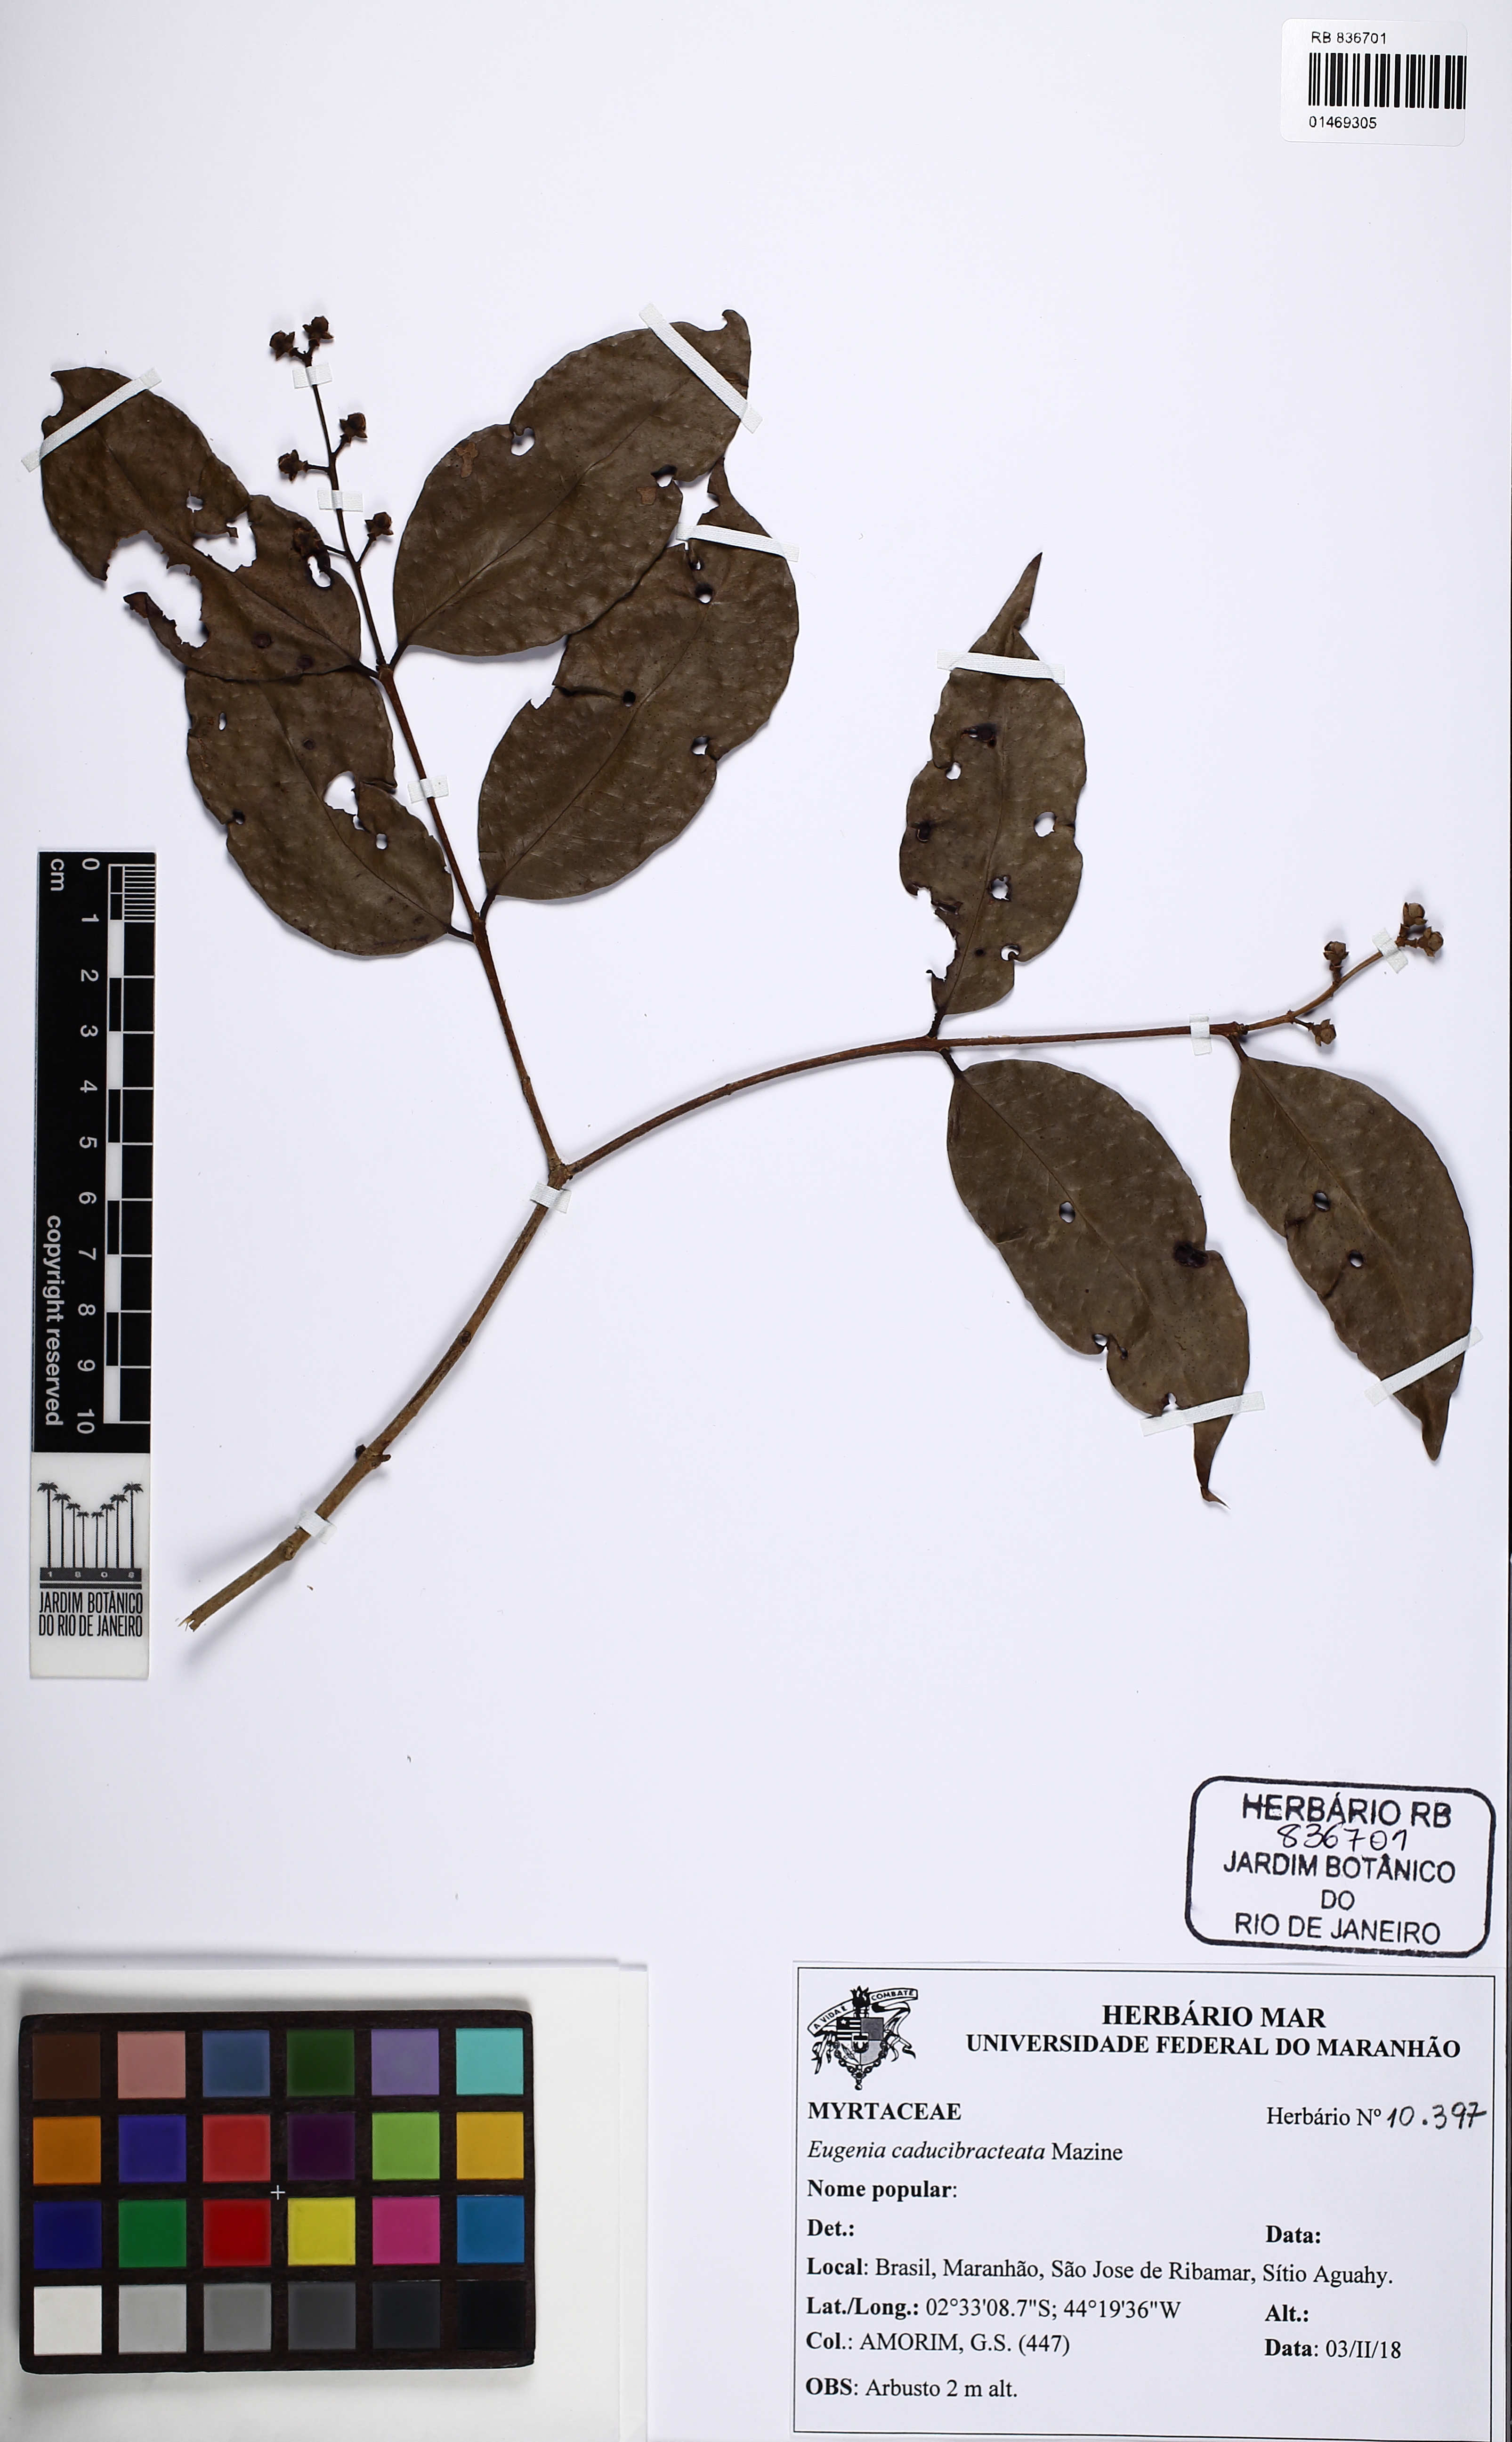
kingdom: Plantae
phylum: Tracheophyta
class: Magnoliopsida
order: Myrtales
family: Myrtaceae
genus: Eugenia
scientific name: Eugenia caducibracteata
